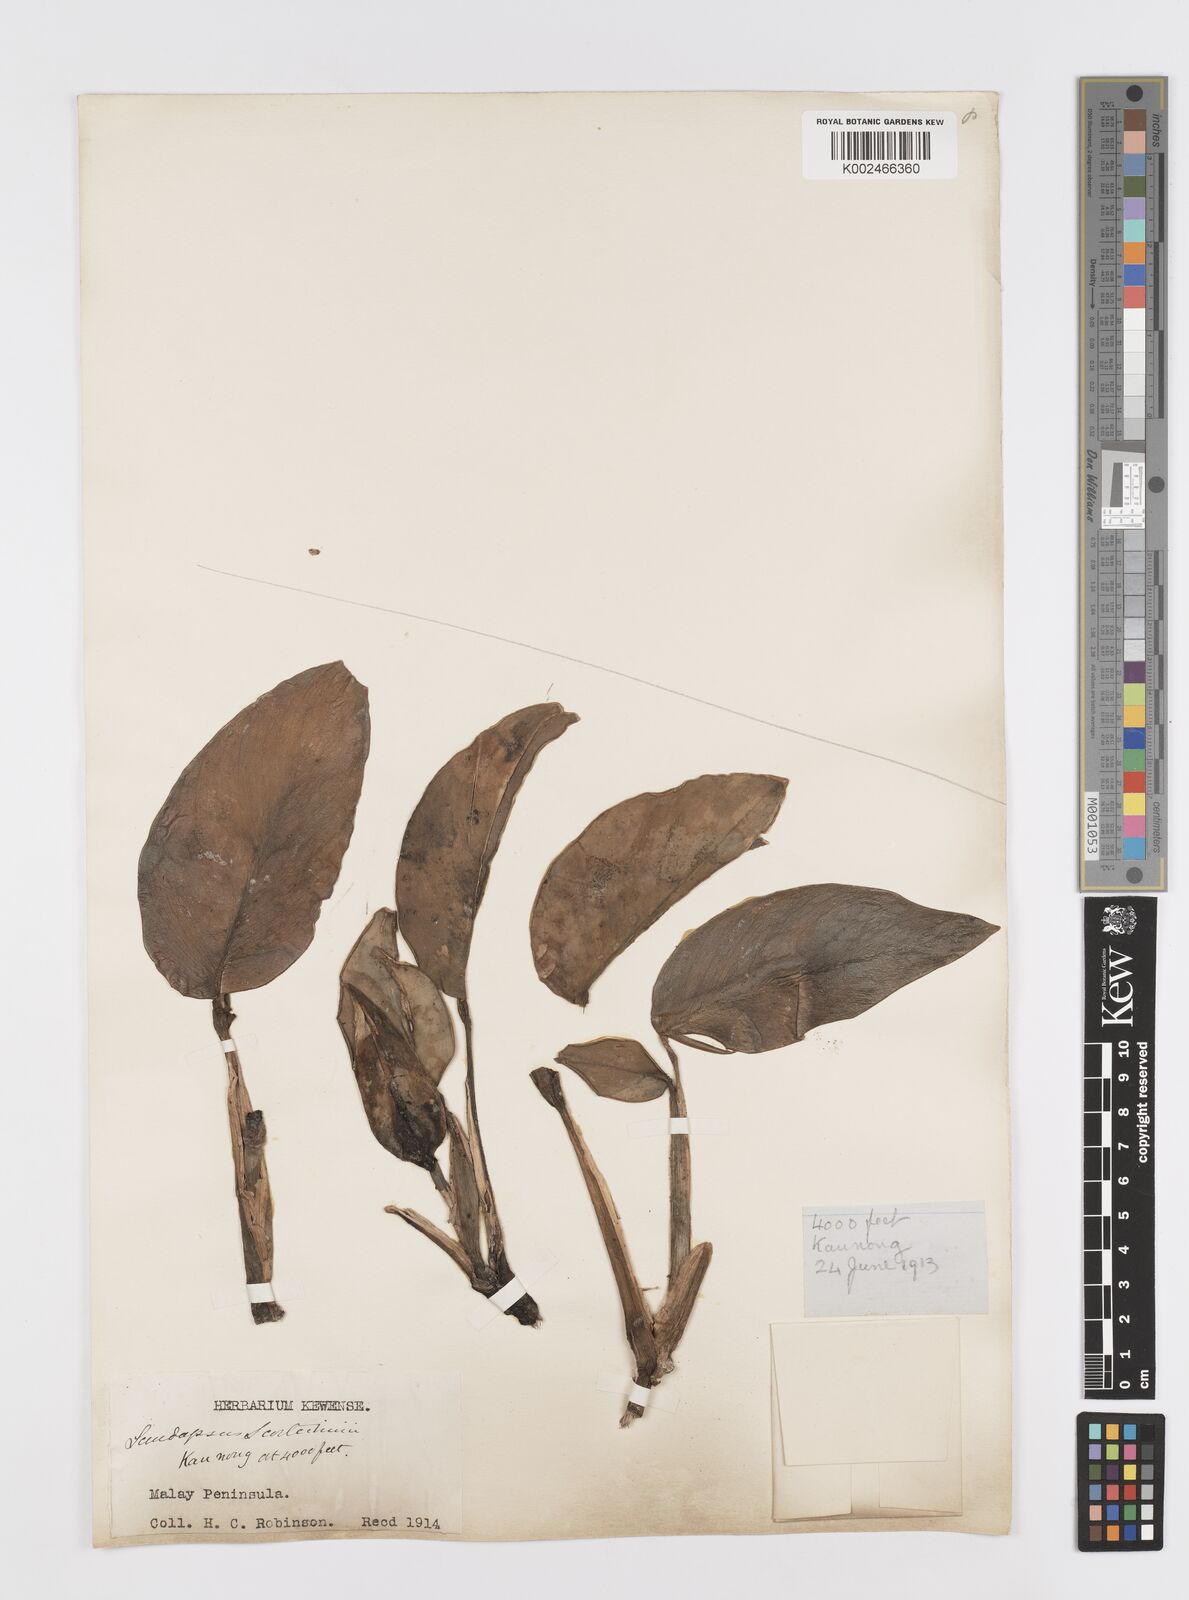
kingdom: Plantae
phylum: Tracheophyta
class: Liliopsida
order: Alismatales
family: Araceae
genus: Scindapsus
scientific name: Scindapsus scortechinii
